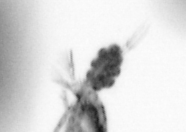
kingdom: Animalia
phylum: Arthropoda
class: Copepoda
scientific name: Copepoda
